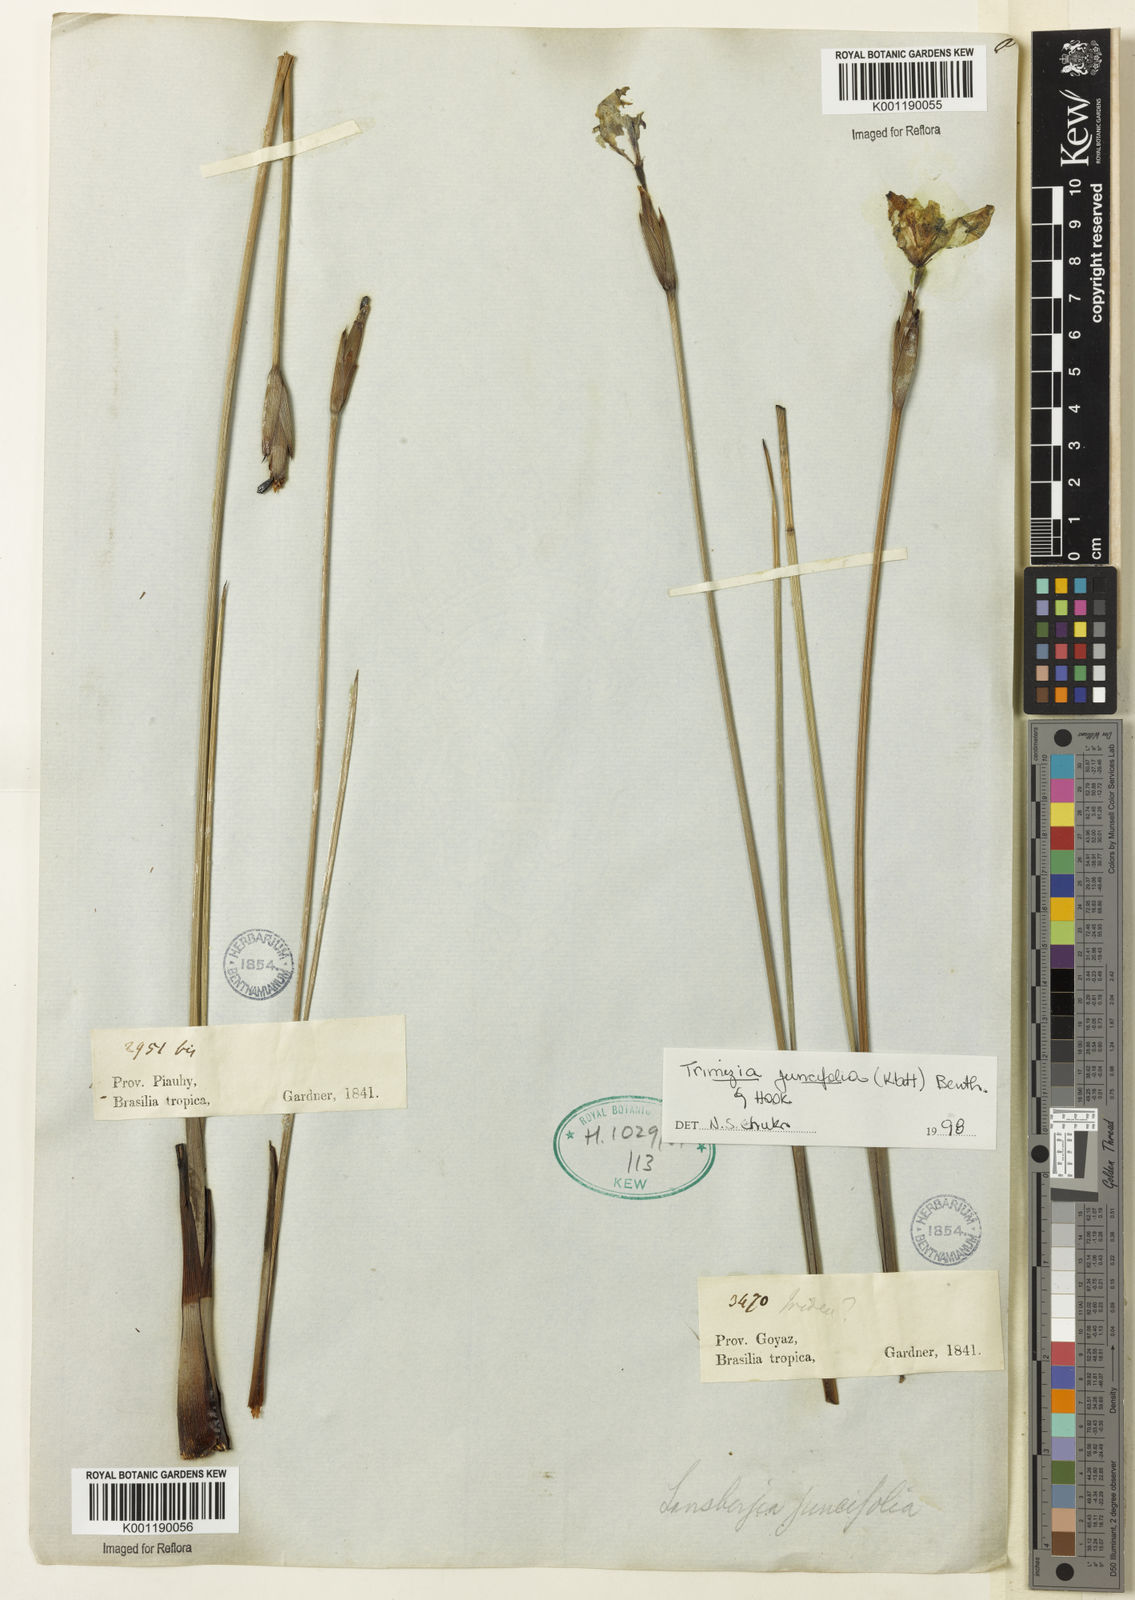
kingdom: Plantae
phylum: Tracheophyta
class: Liliopsida
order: Asparagales
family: Iridaceae
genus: Trimezia
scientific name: Trimezia juncifolia
